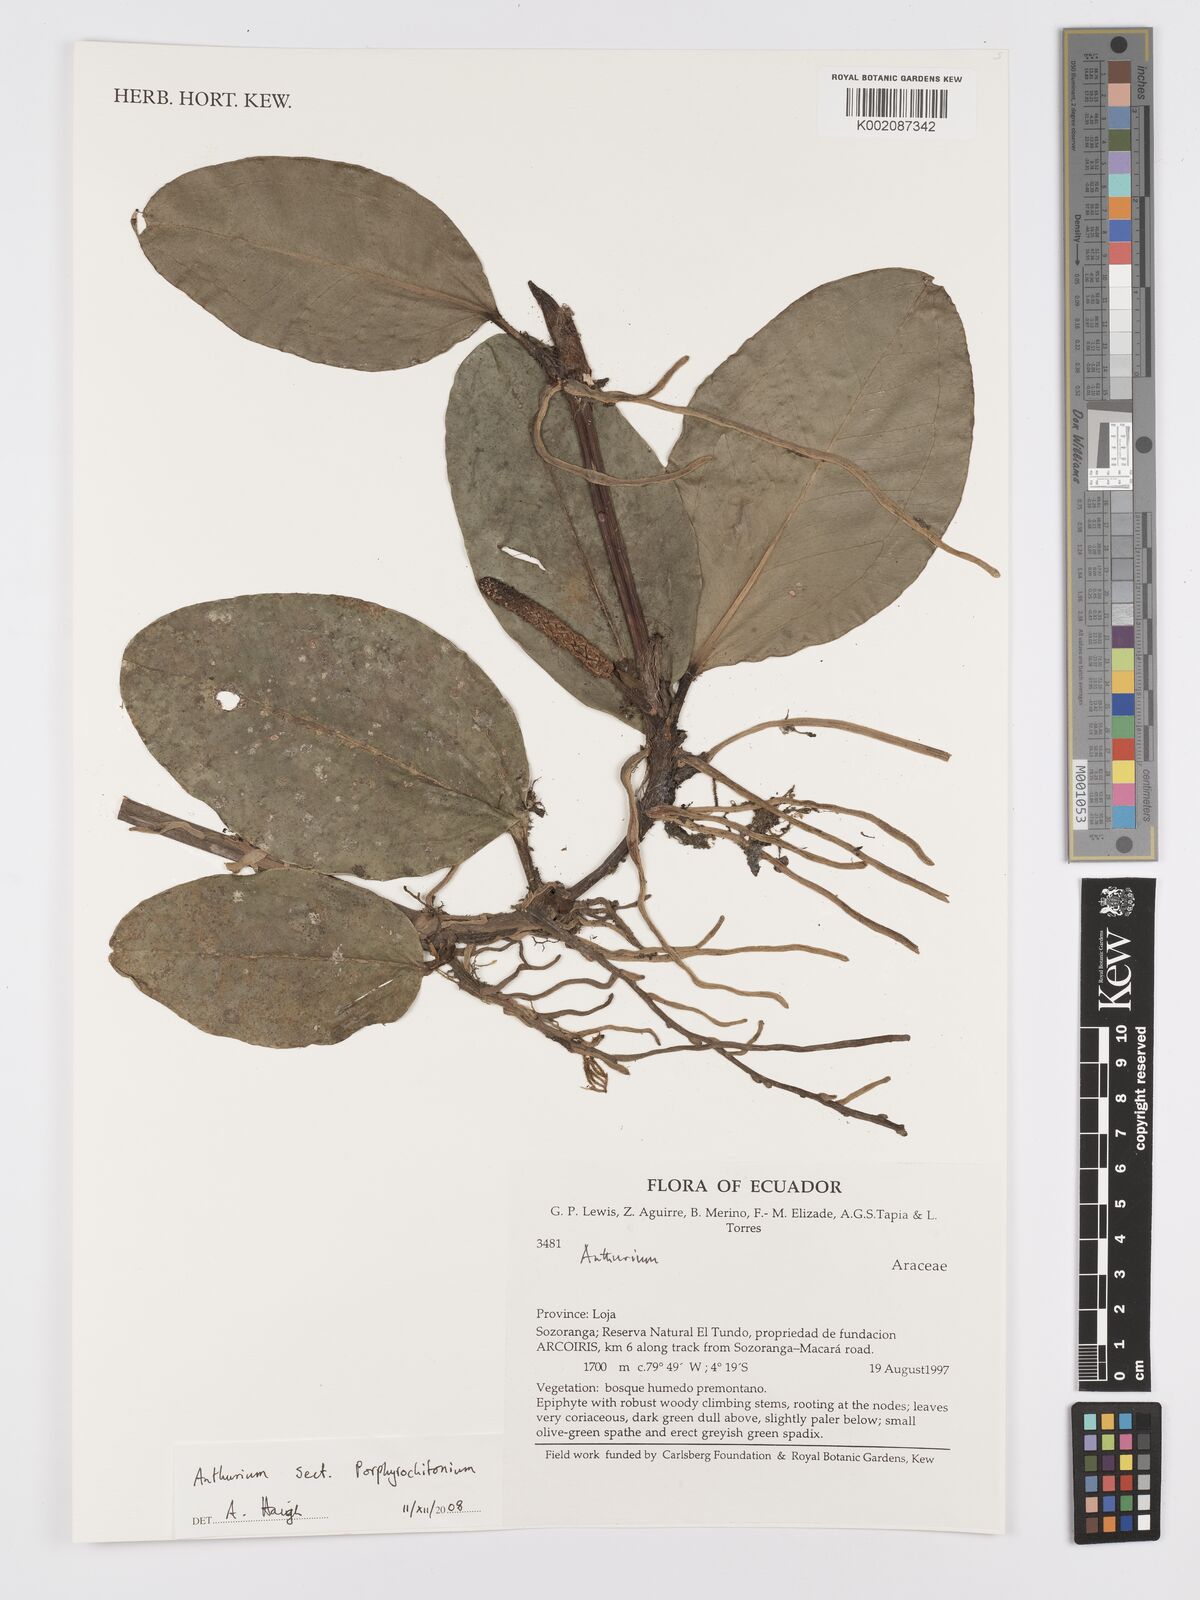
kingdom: Plantae
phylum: Tracheophyta
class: Liliopsida
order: Alismatales
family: Araceae
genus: Anthurium
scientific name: Anthurium
